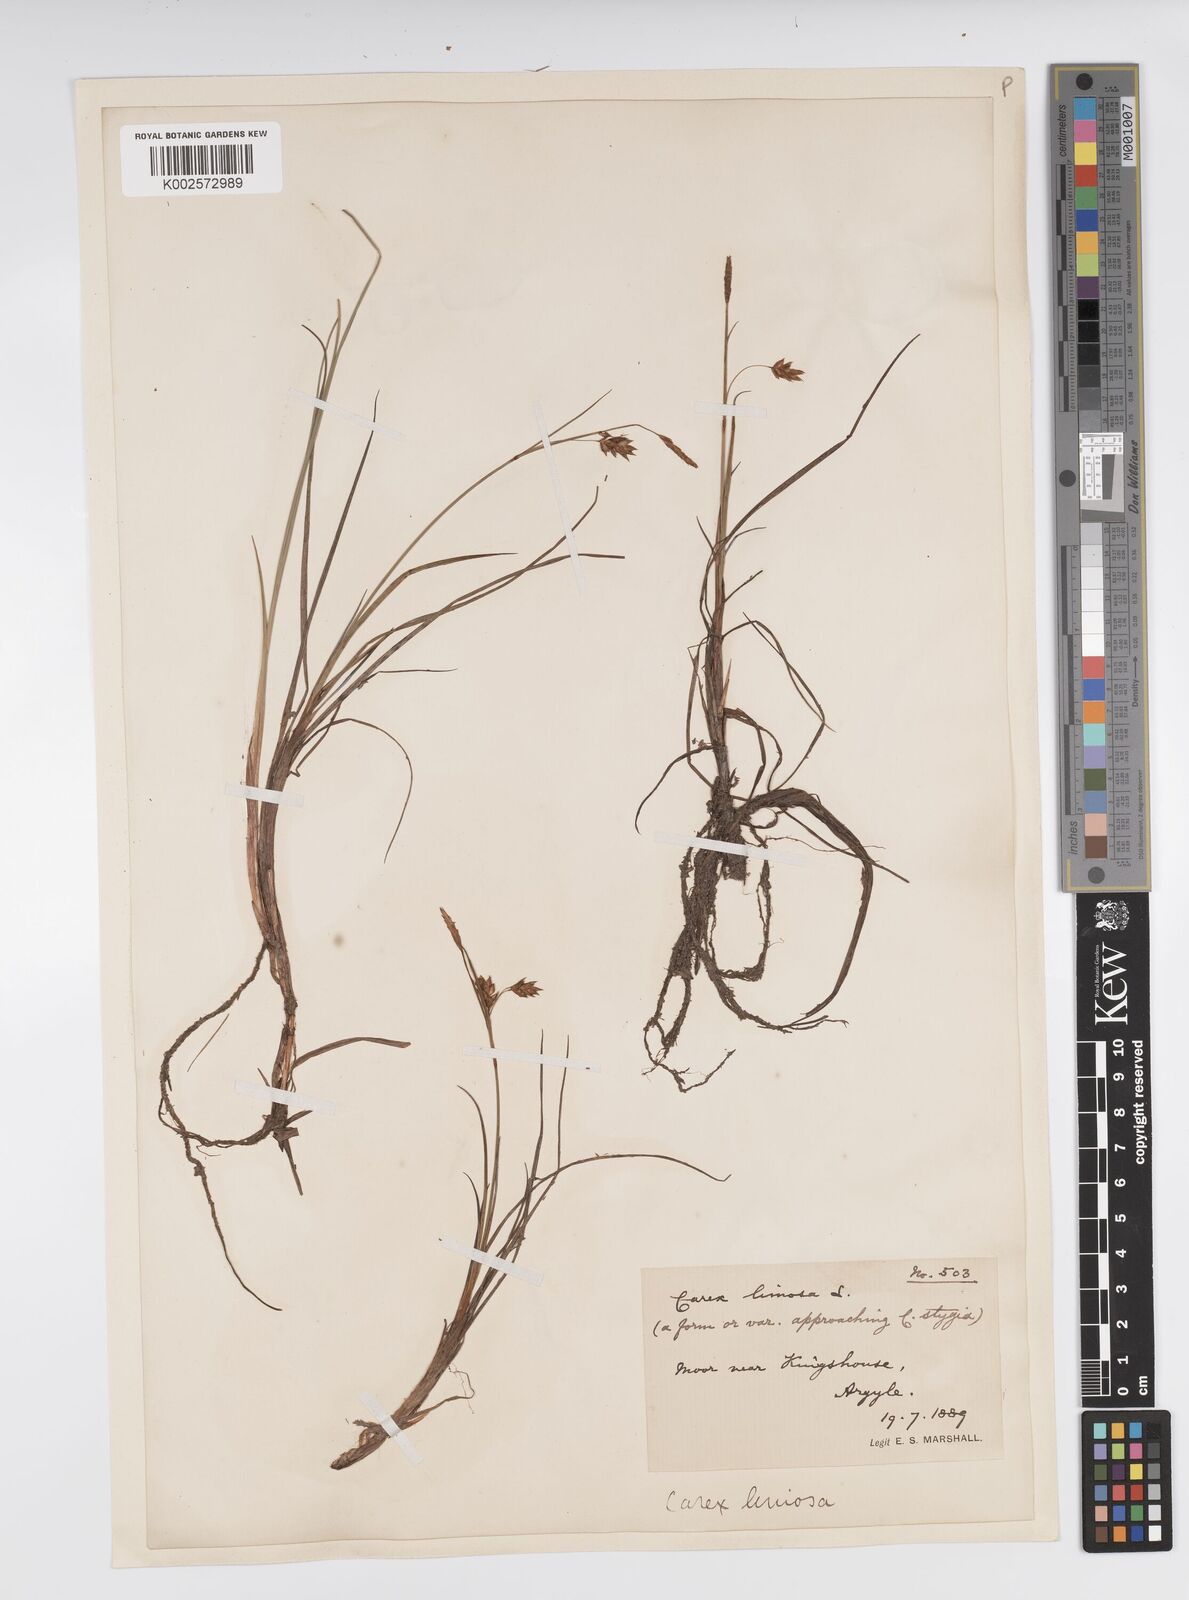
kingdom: Plantae
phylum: Tracheophyta
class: Liliopsida
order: Poales
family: Cyperaceae
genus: Carex
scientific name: Carex limosa
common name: Bog sedge
